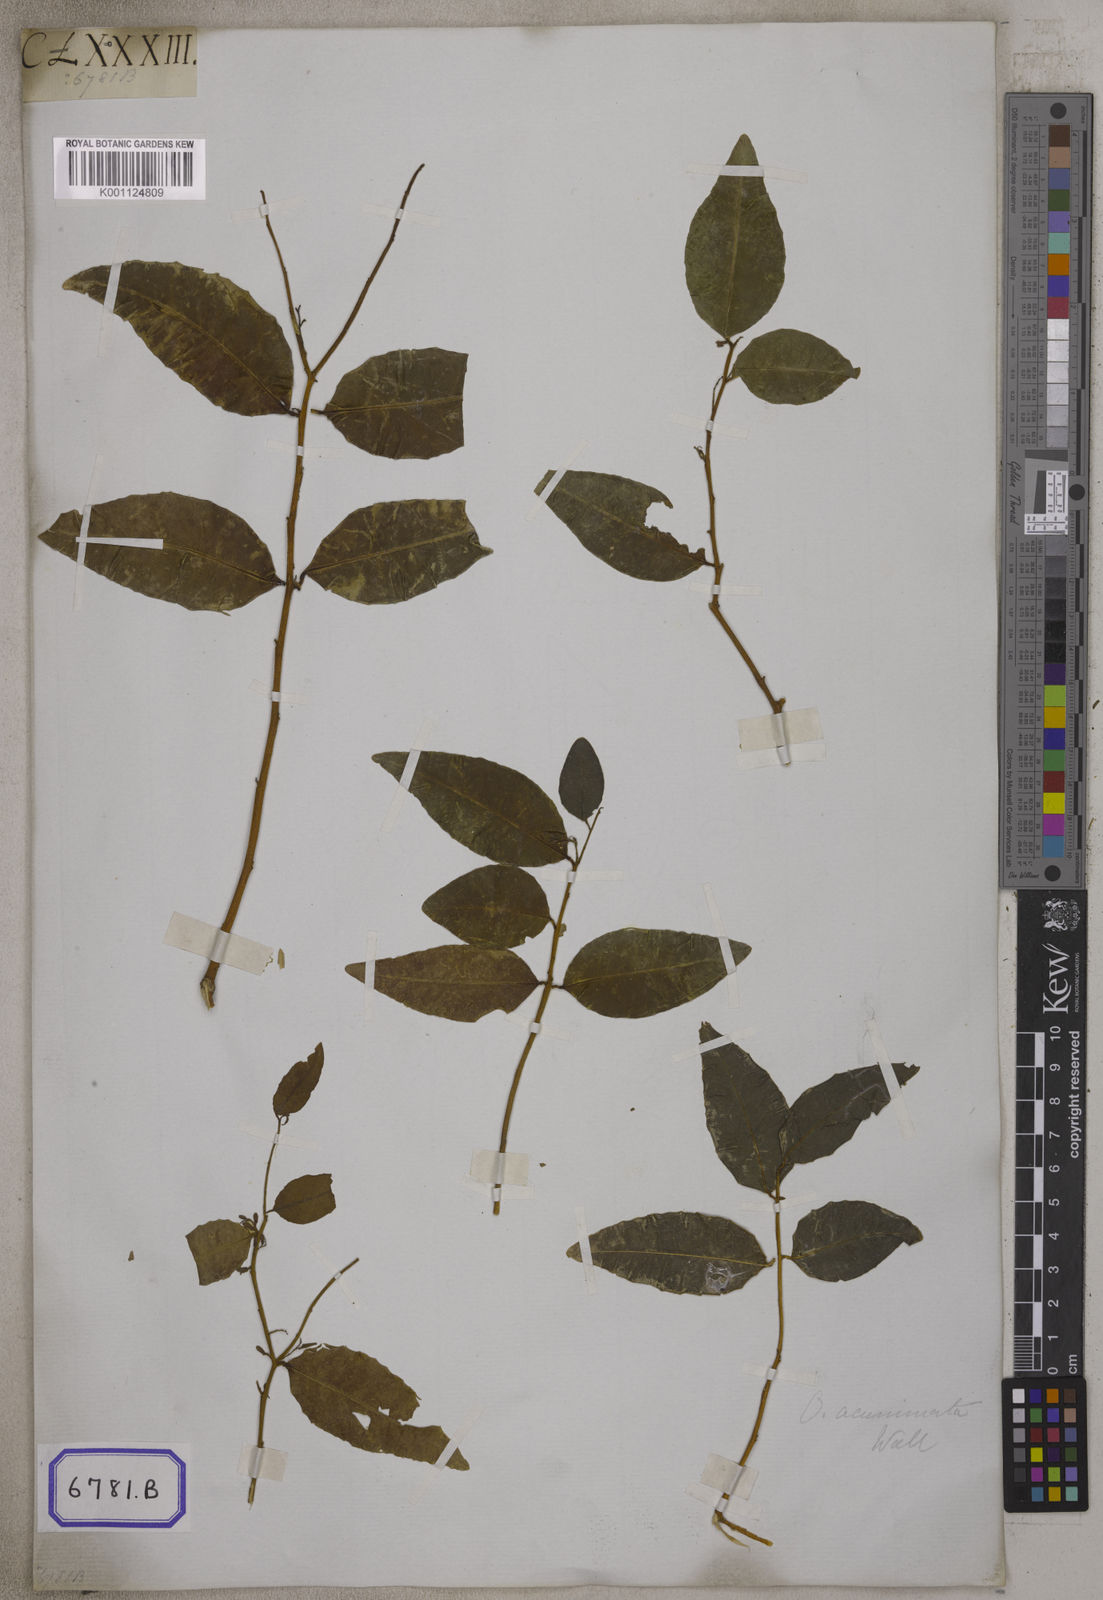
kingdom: Plantae
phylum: Tracheophyta
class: Magnoliopsida
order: Santalales
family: Olacaceae
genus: Olax
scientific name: Olax
